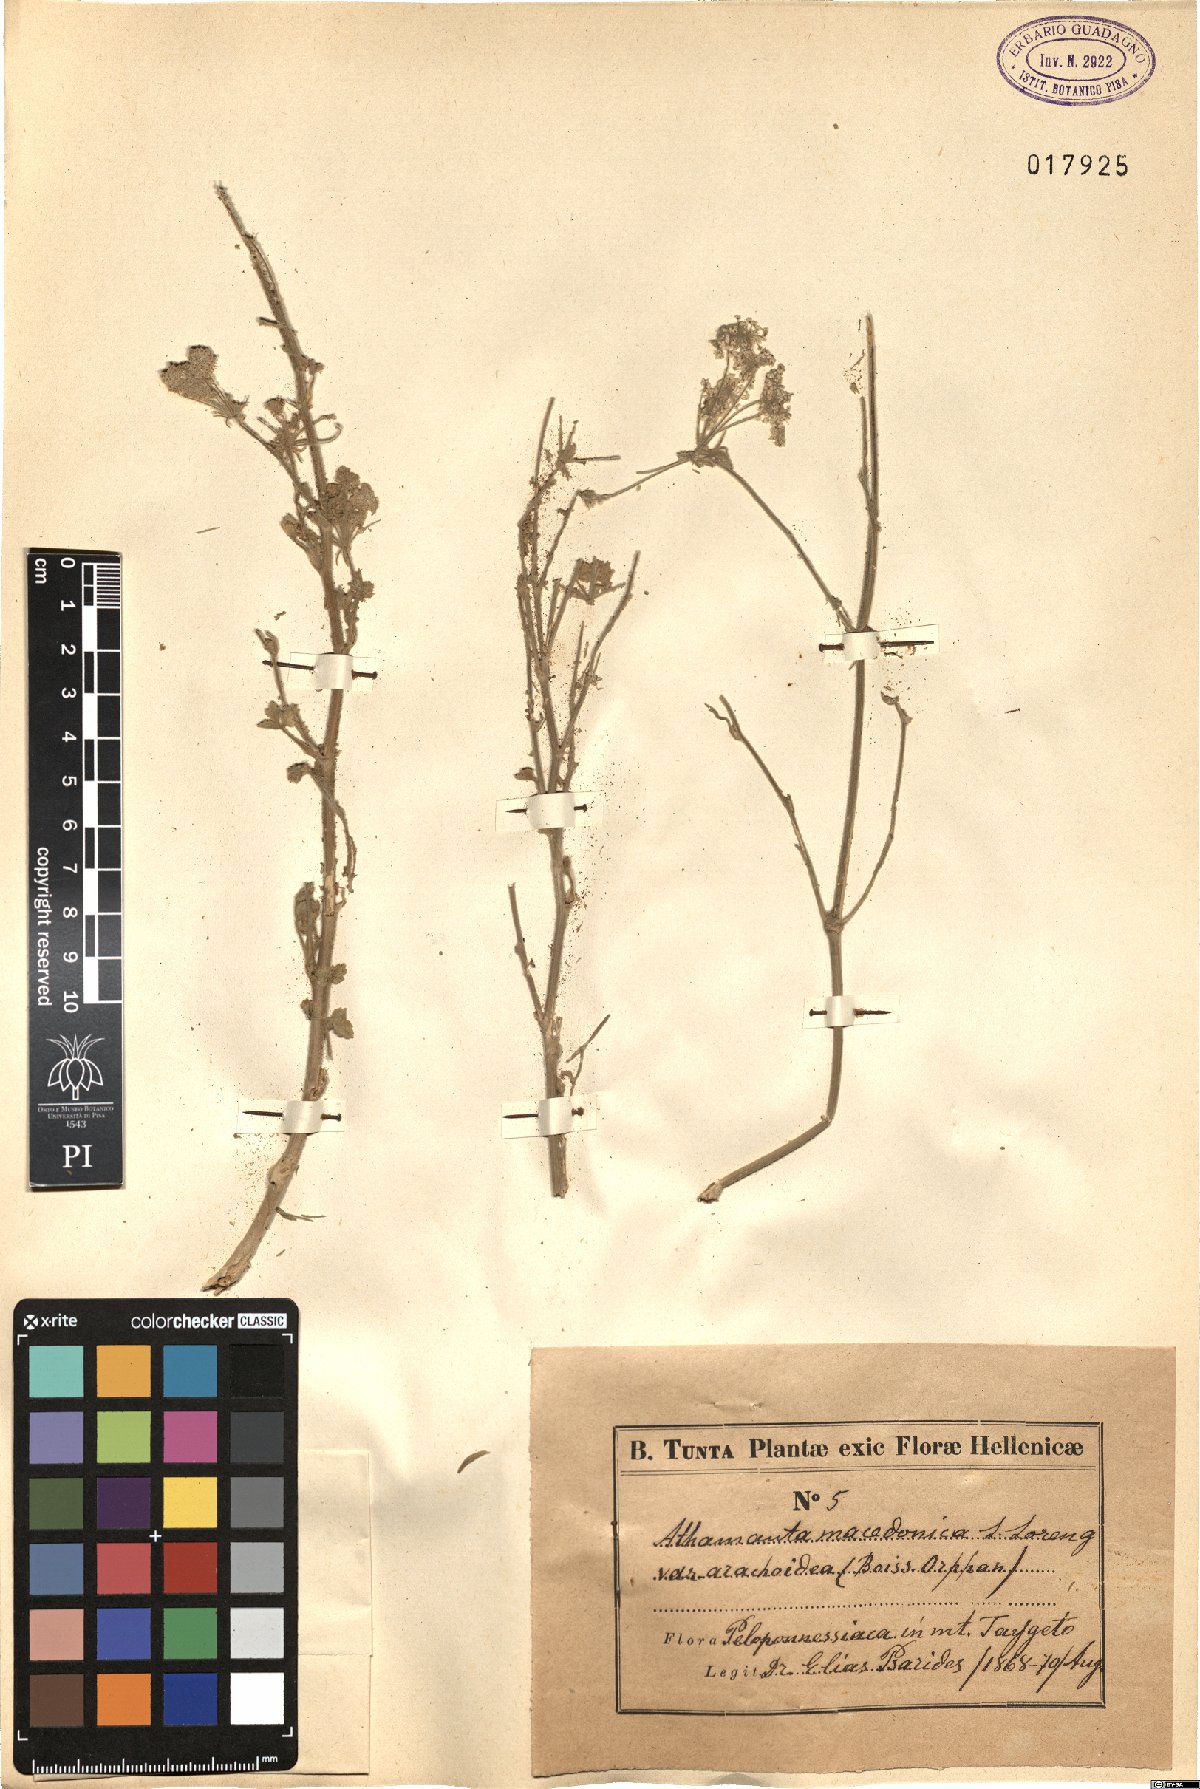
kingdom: Plantae
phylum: Tracheophyta
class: Magnoliopsida
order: Apiales
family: Apiaceae
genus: Bubon
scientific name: Bubon arachnoideum
